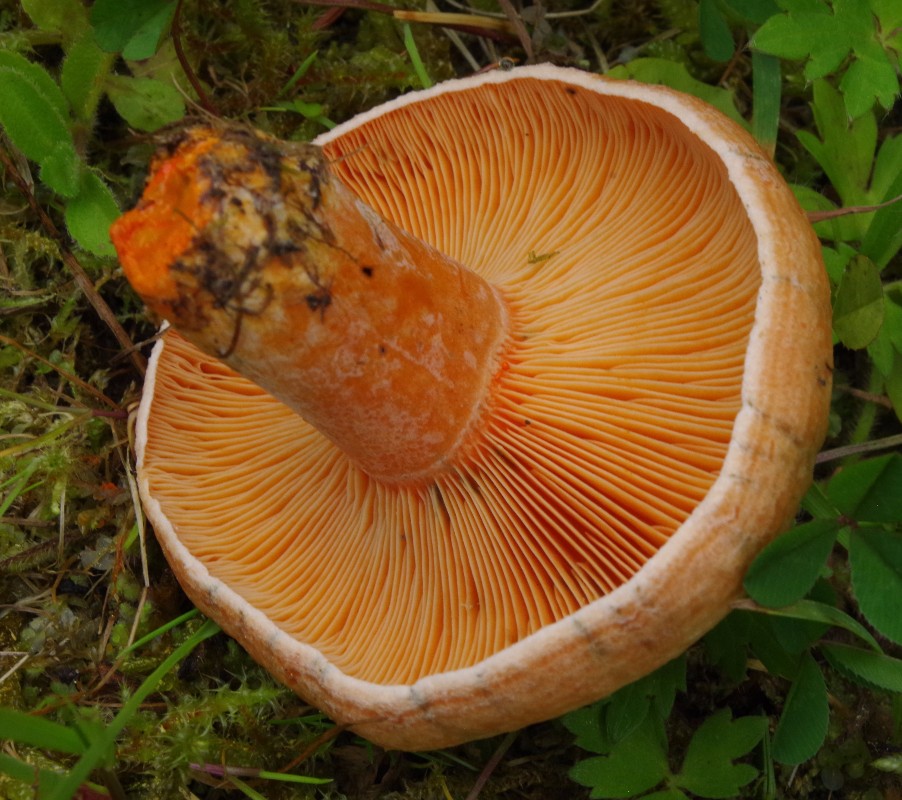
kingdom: Fungi
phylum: Basidiomycota
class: Agaricomycetes
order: Russulales
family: Russulaceae
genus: Lactarius
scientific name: Lactarius deterrimus
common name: gran-mælkehat
